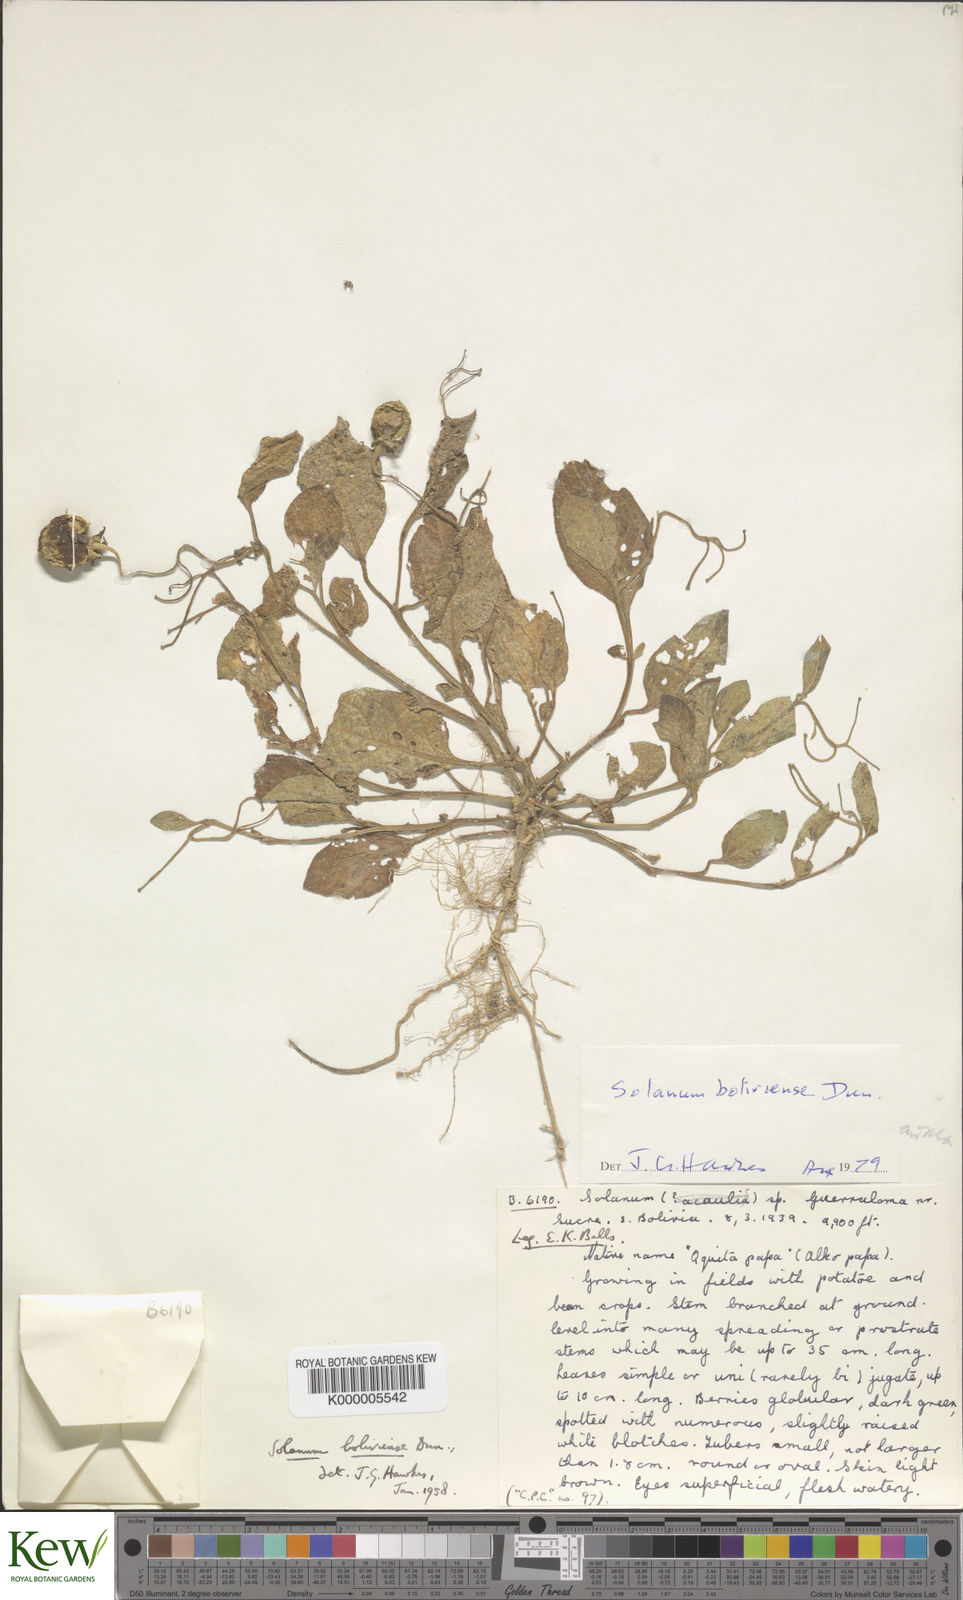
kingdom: Plantae
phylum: Tracheophyta
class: Magnoliopsida
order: Solanales
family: Solanaceae
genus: Solanum
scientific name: Solanum boliviense
